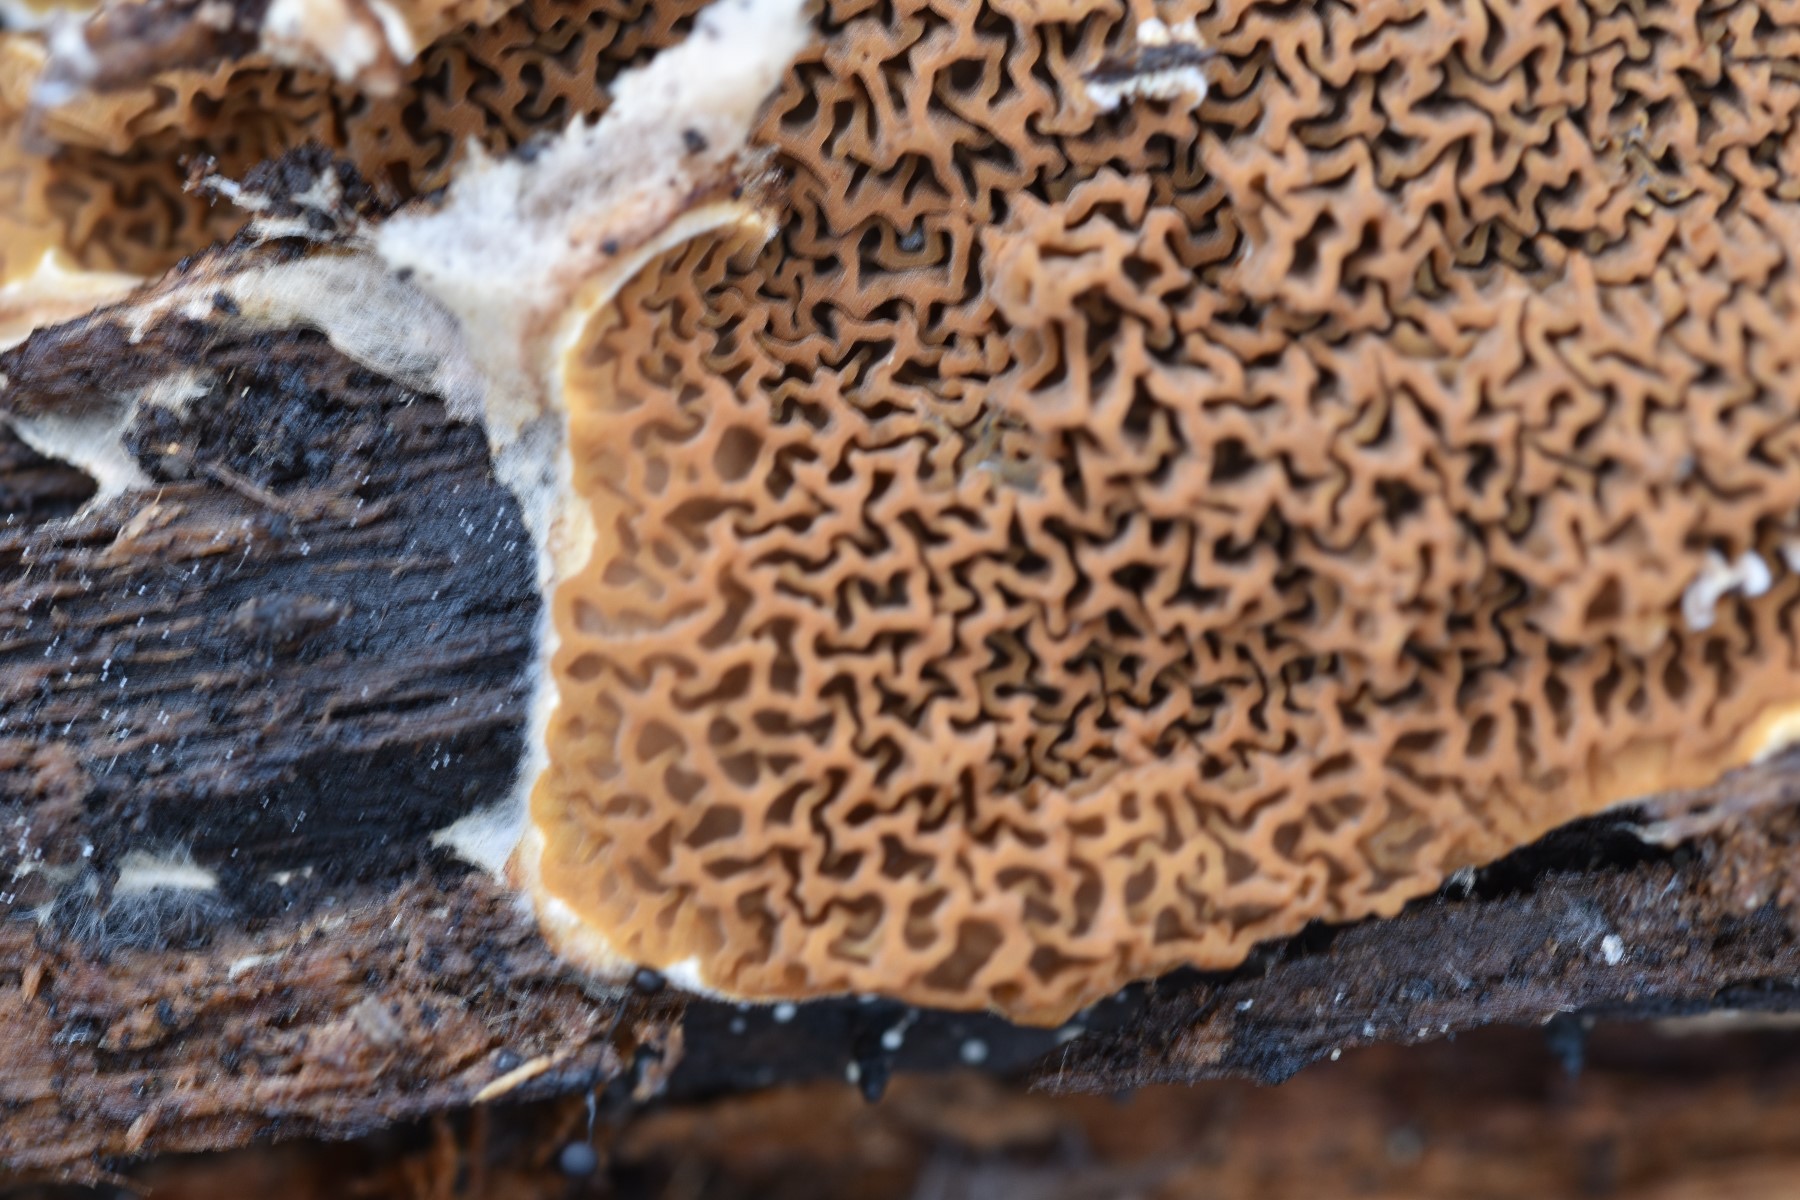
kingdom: Fungi
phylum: Basidiomycota
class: Agaricomycetes
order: Boletales
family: Serpulaceae
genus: Serpula
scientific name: Serpula himantioides
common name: tyndkødet hussvamp
